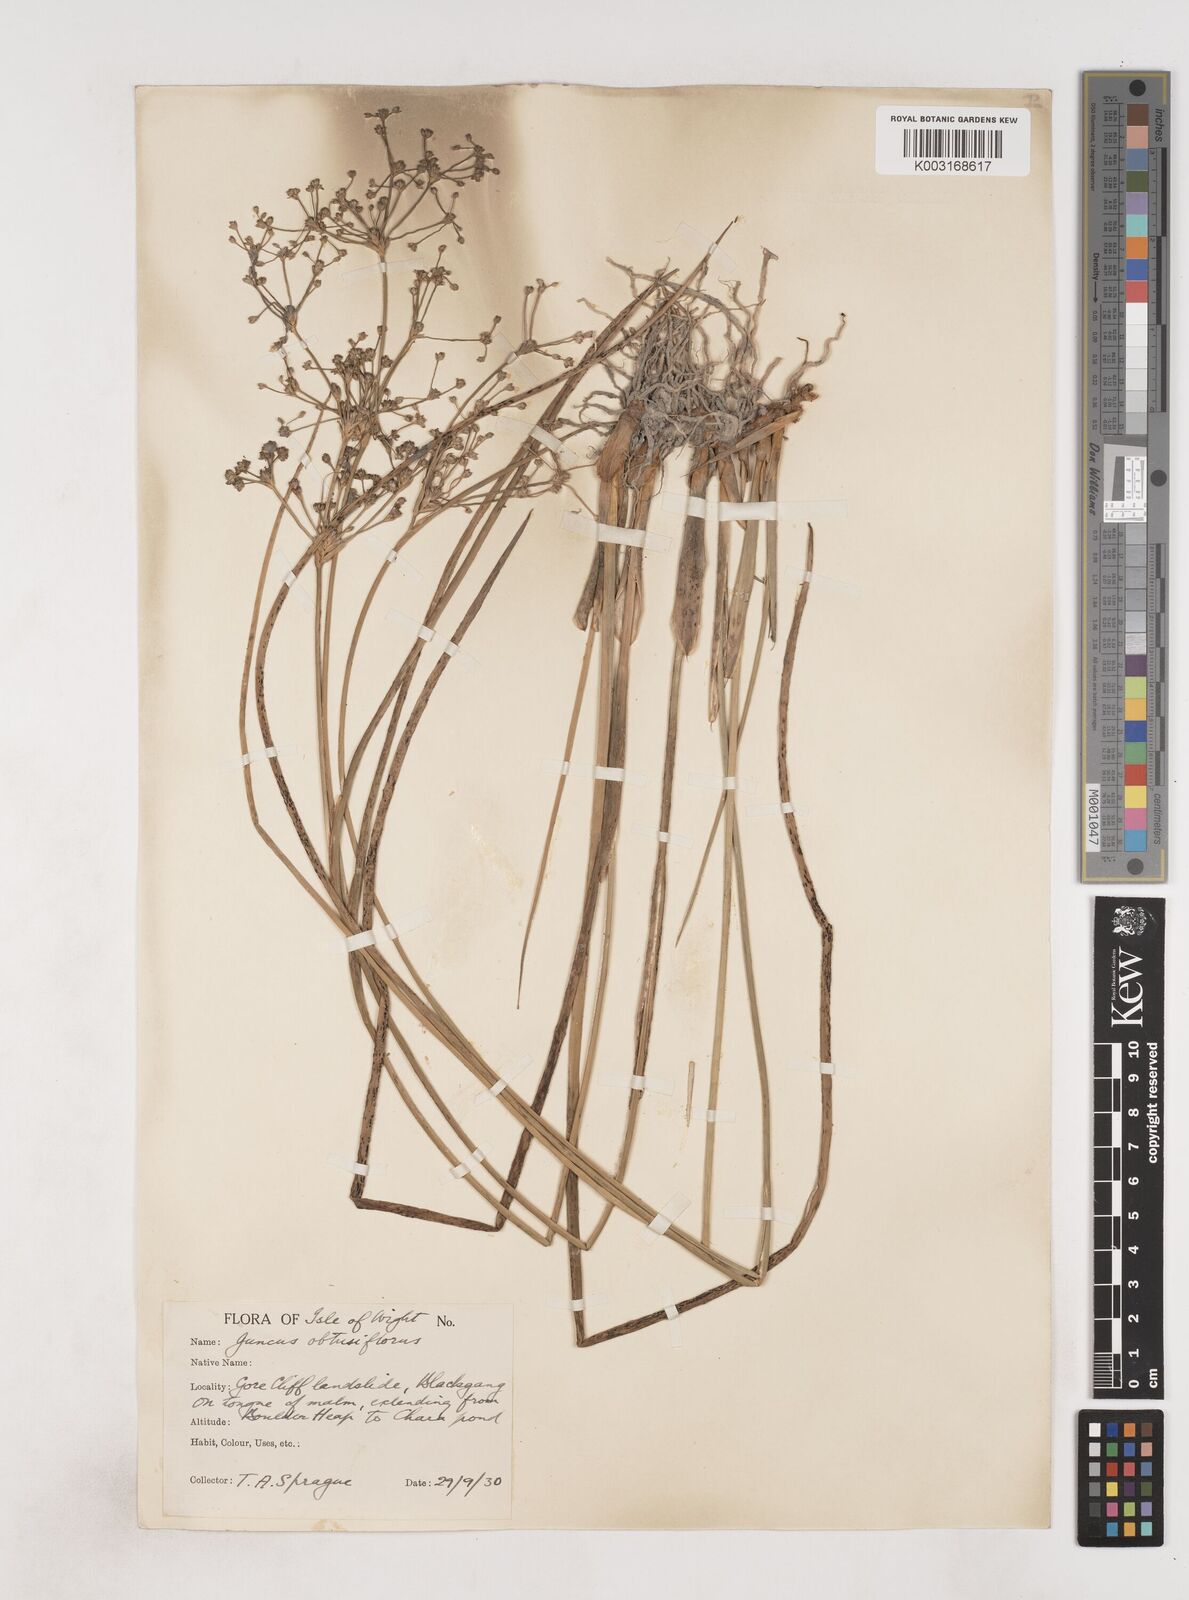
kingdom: Plantae
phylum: Tracheophyta
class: Liliopsida
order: Poales
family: Juncaceae
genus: Juncus
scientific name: Juncus subnodulosus
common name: Blunt-flowered rush
